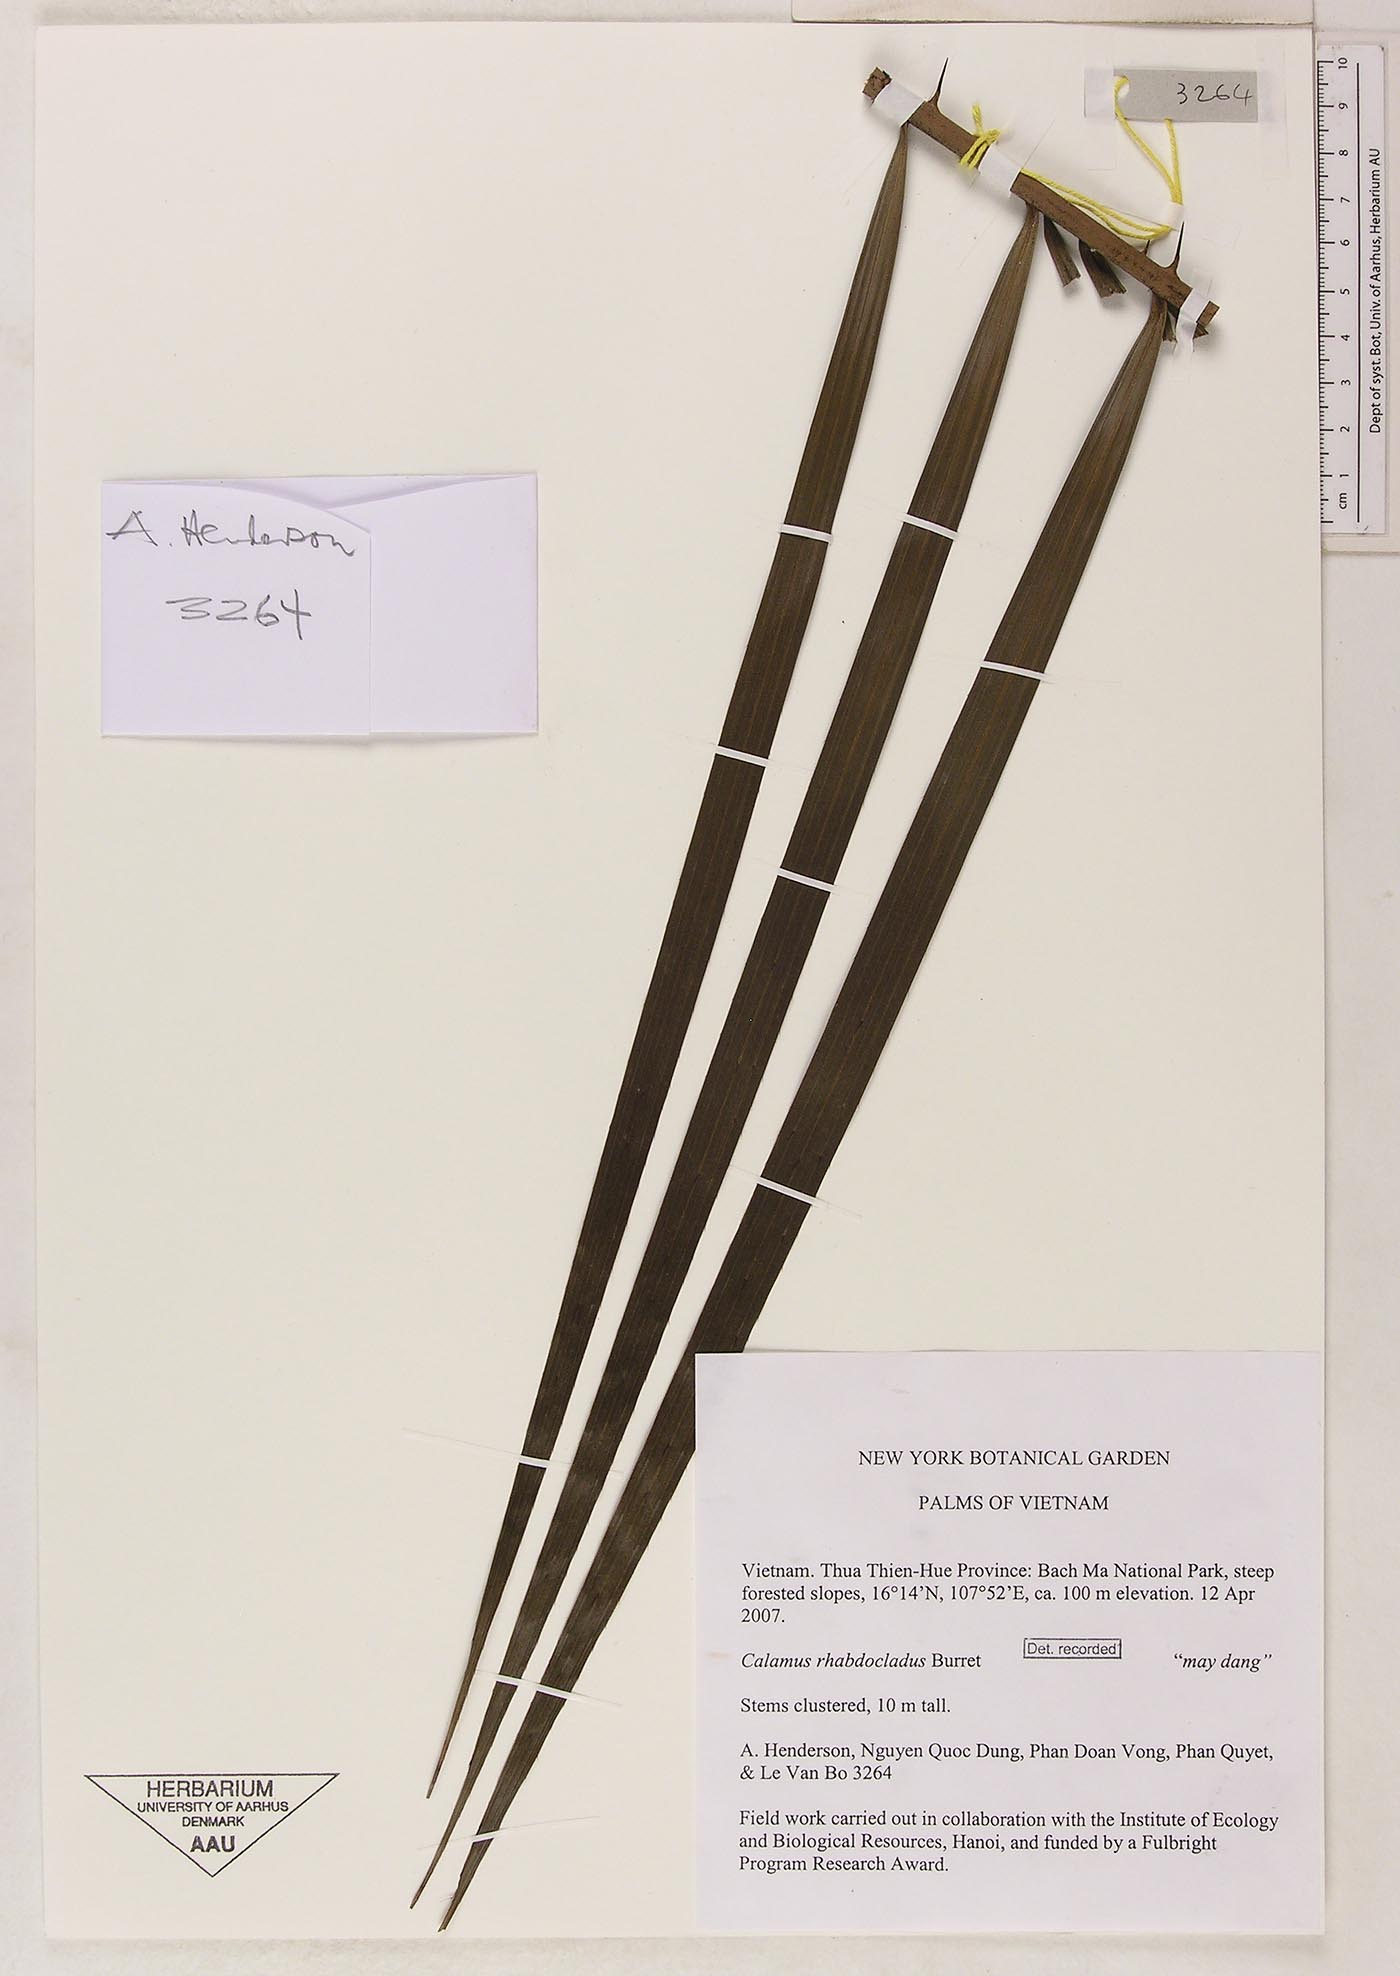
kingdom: Plantae
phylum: Tracheophyta
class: Liliopsida
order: Arecales
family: Arecaceae
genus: Calamus
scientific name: Calamus rhabdocladus
